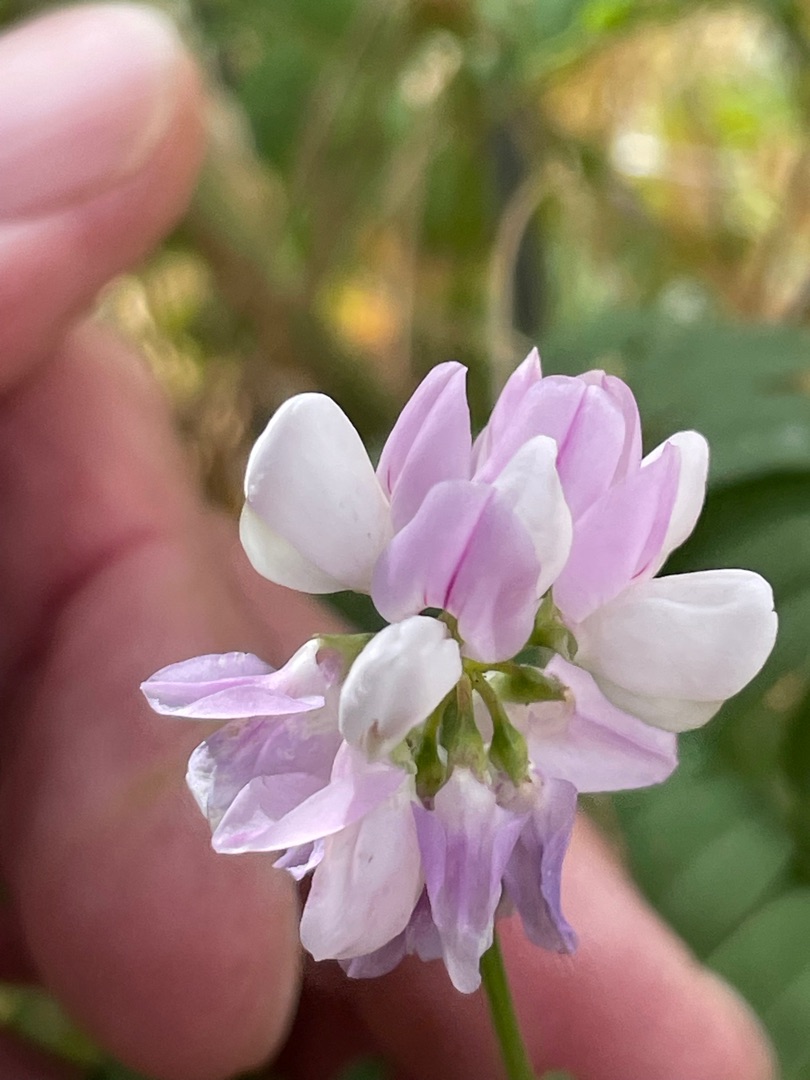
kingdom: Plantae
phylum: Tracheophyta
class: Magnoliopsida
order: Fabales
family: Fabaceae
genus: Coronilla
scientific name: Coronilla varia
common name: Giftig kronvikke
